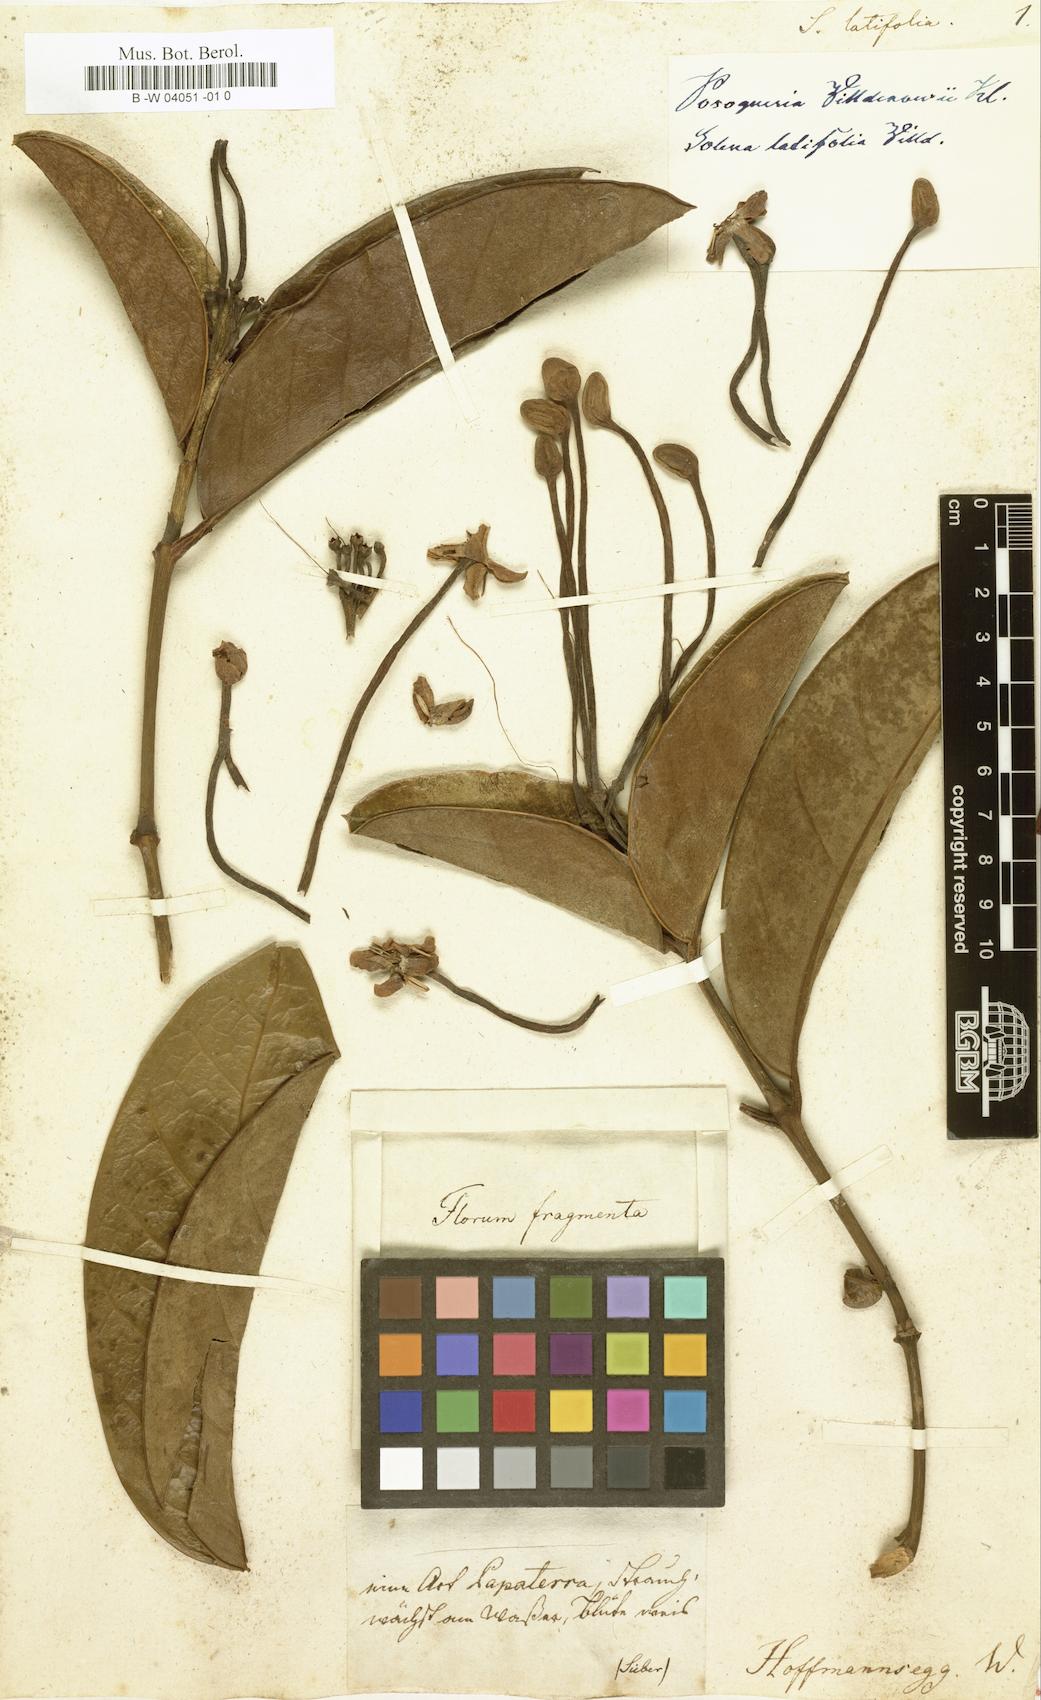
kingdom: Plantae
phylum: Tracheophyta
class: Magnoliopsida
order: Gentianales
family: Rubiaceae
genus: Posoqueria
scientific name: Posoqueria latifolia
